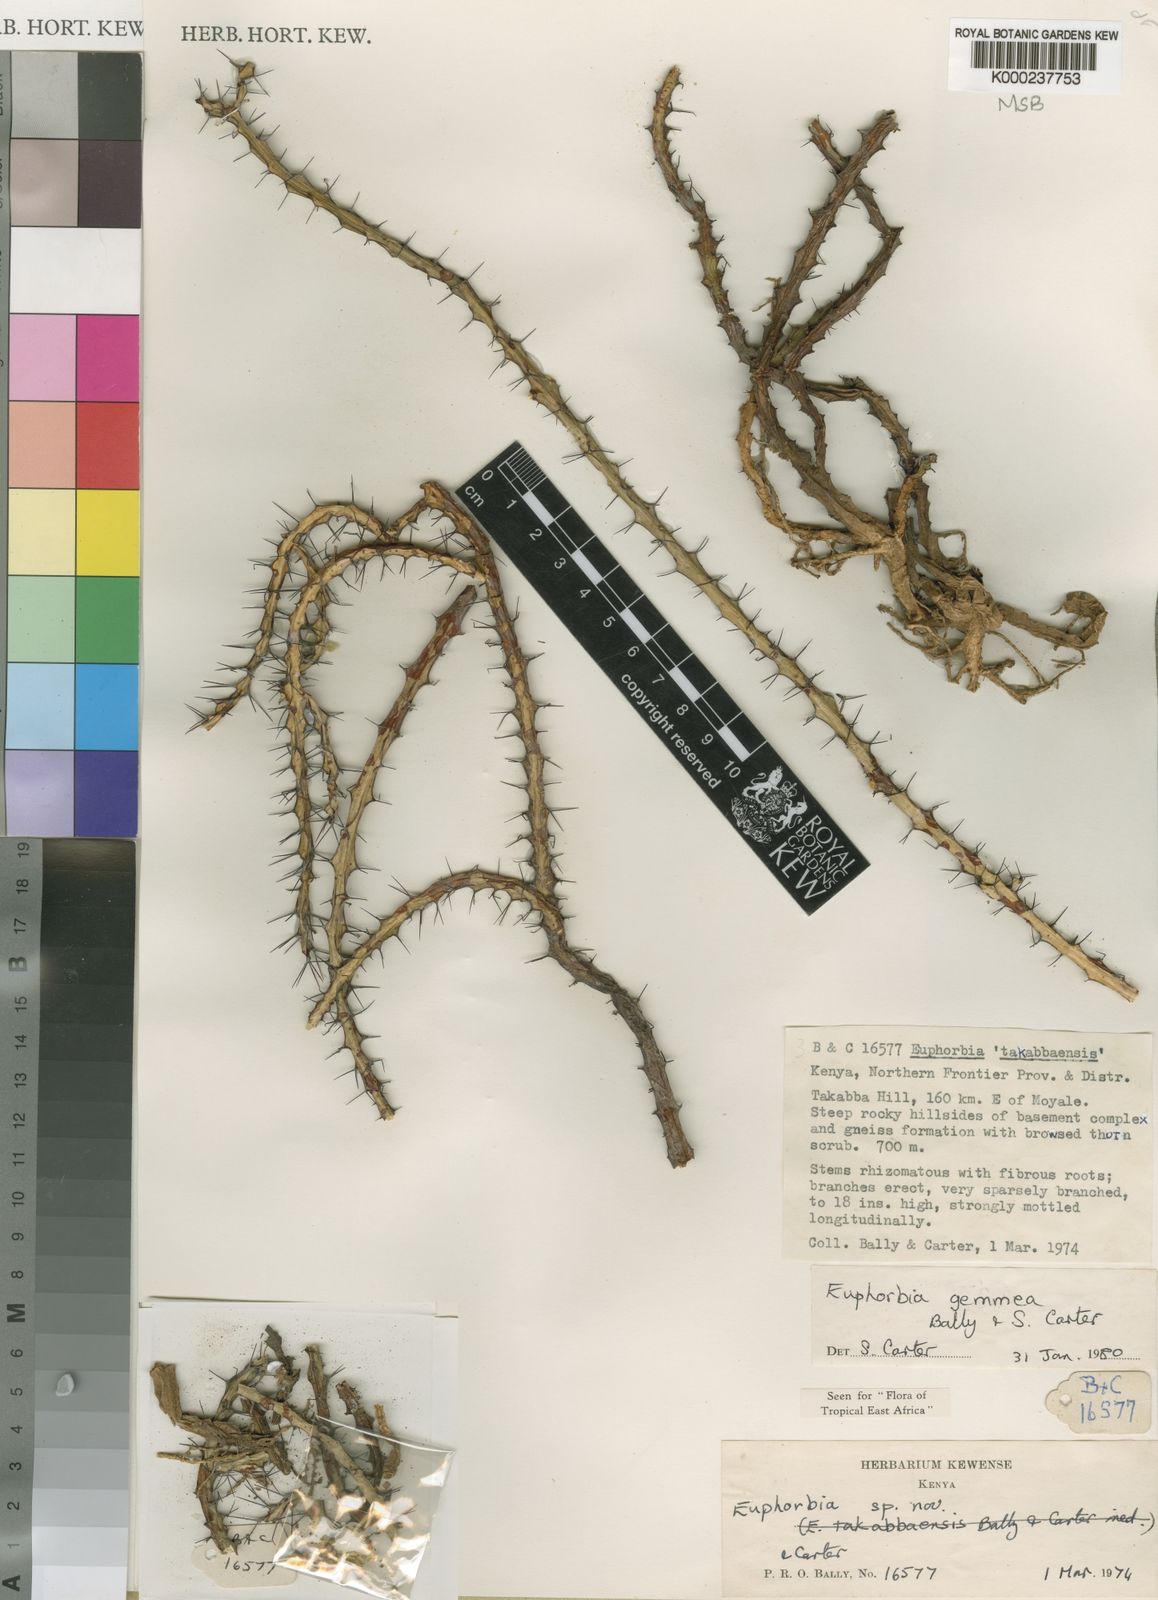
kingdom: Plantae
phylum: Tracheophyta
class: Magnoliopsida
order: Malpighiales
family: Euphorbiaceae
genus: Euphorbia
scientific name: Euphorbia gemmea
